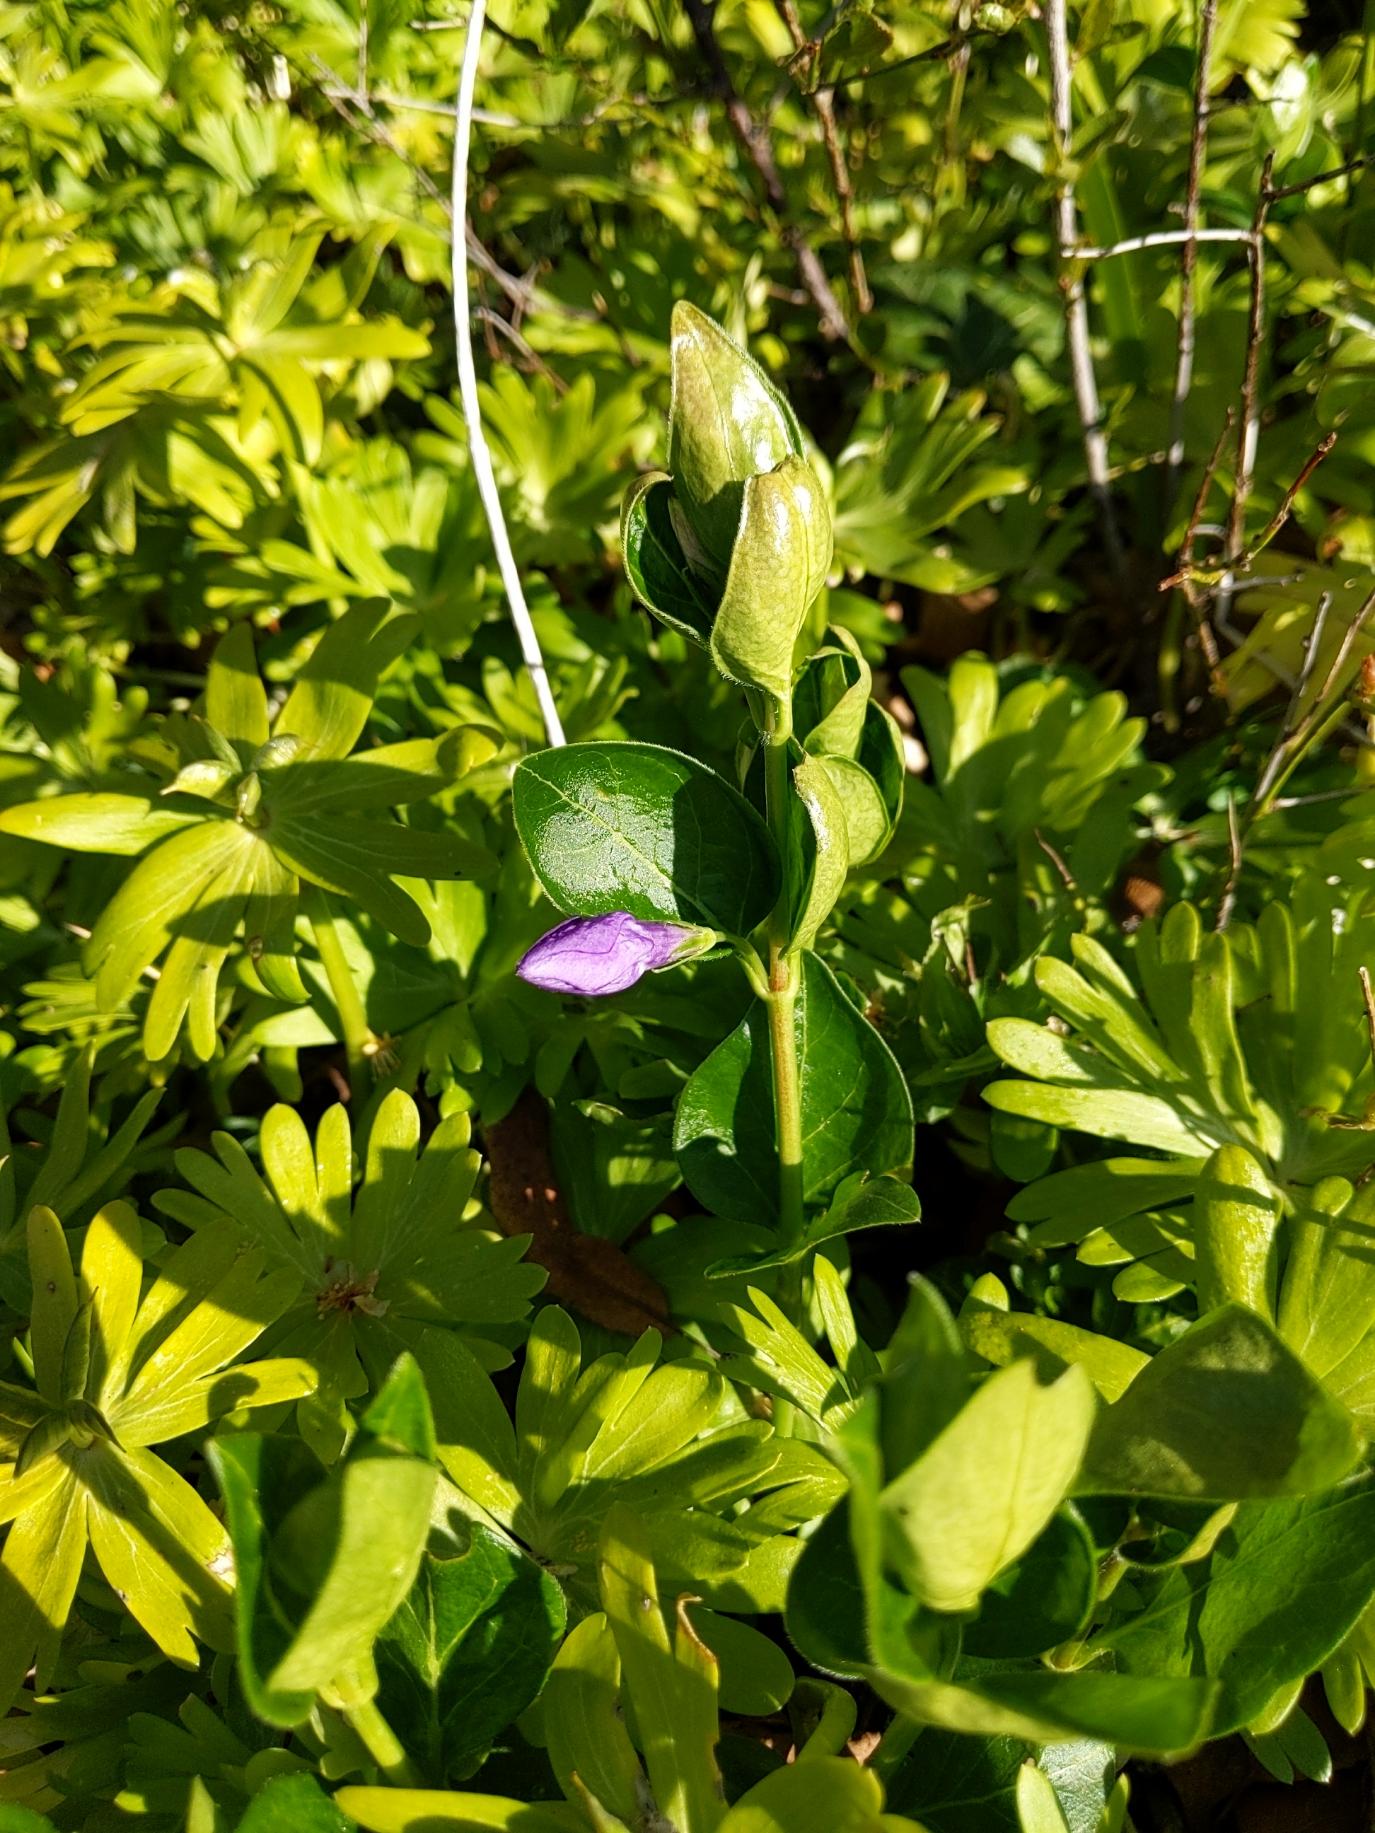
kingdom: Plantae
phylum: Tracheophyta
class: Magnoliopsida
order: Gentianales
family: Apocynaceae
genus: Vinca
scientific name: Vinca major
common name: Stor singrøn
